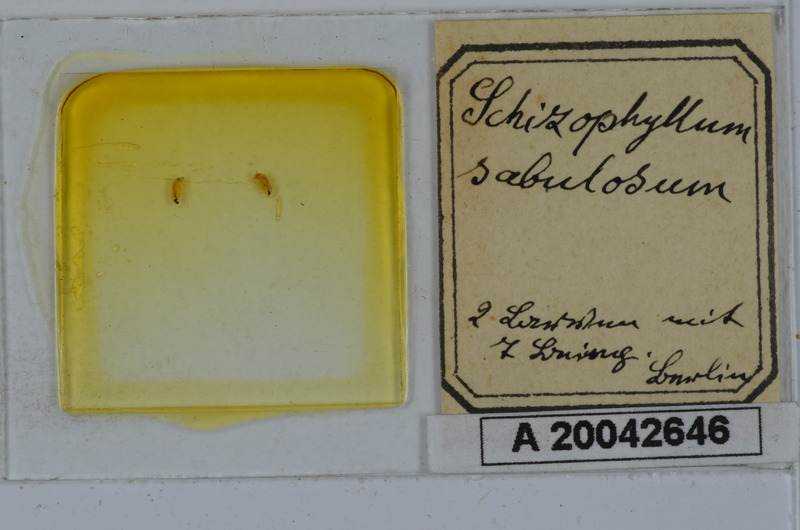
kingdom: Animalia
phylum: Arthropoda
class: Diplopoda
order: Julida
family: Julidae
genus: Schizophyllum
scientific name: Schizophyllum sabulosum
